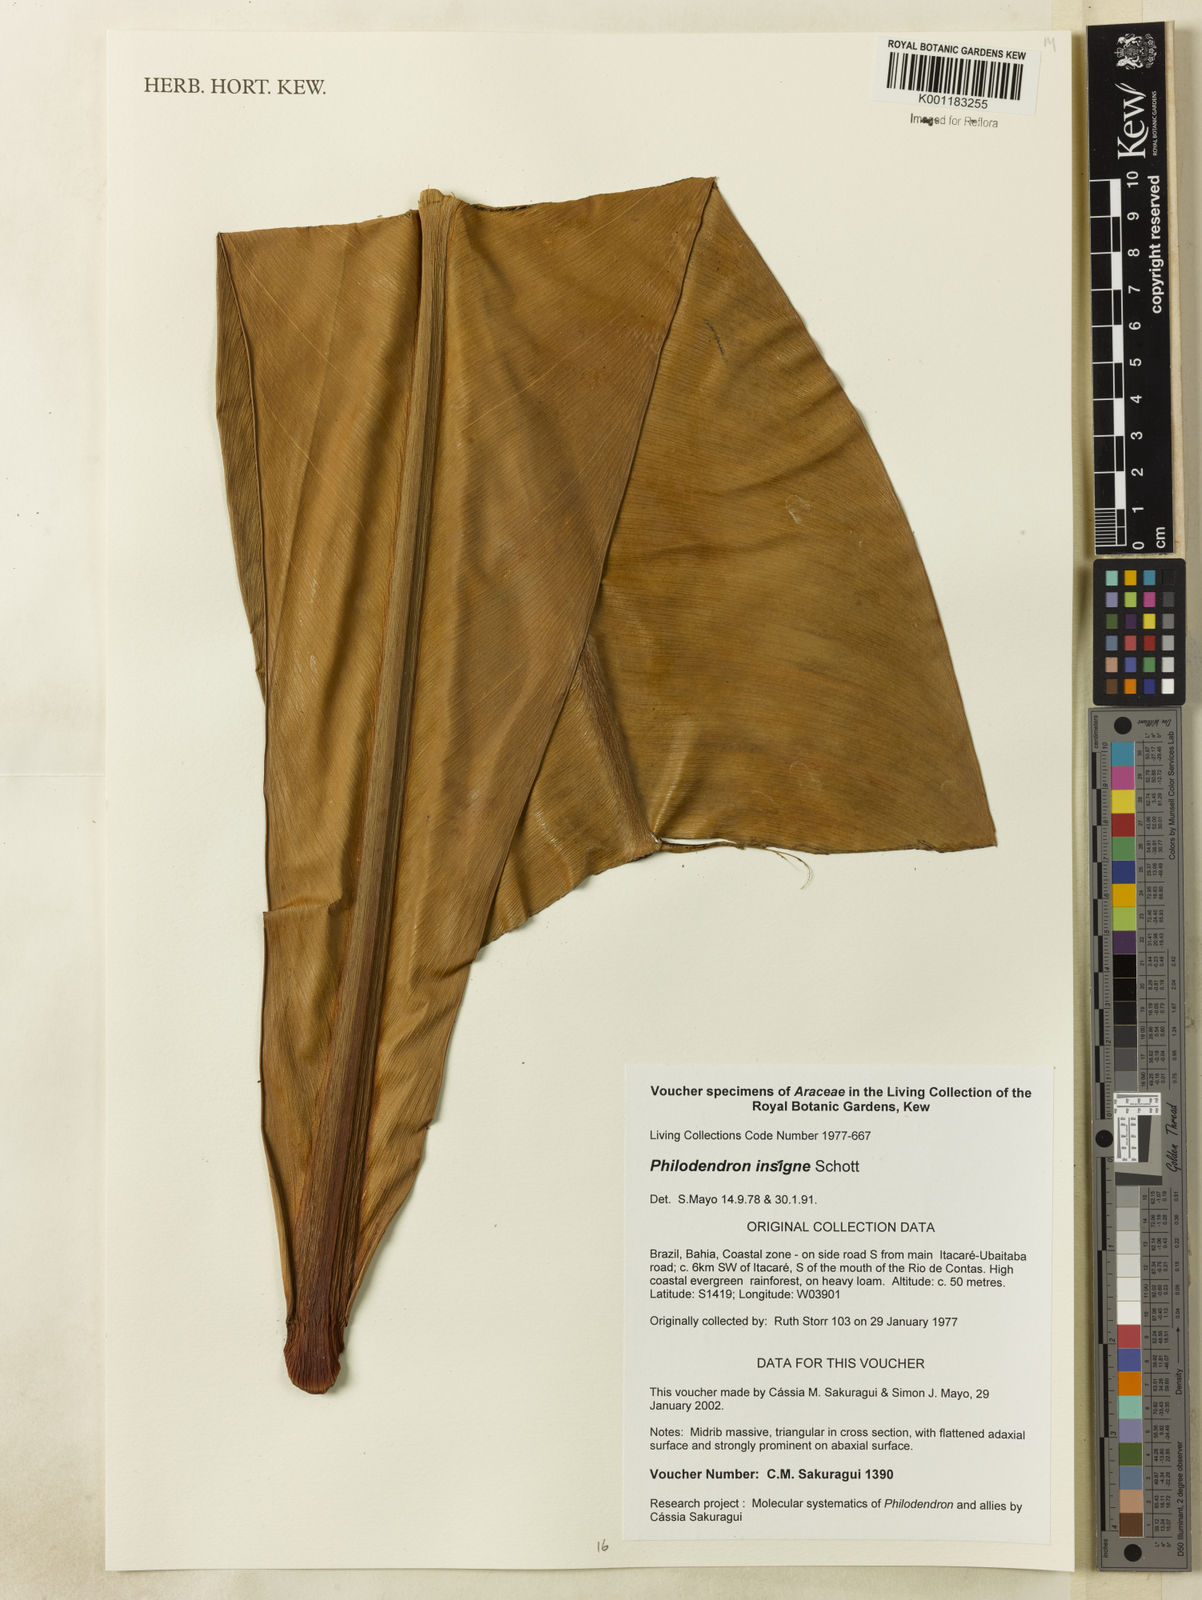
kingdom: Plantae
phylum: Tracheophyta
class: Liliopsida
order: Alismatales
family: Araceae
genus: Philodendron
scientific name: Philodendron insigne
